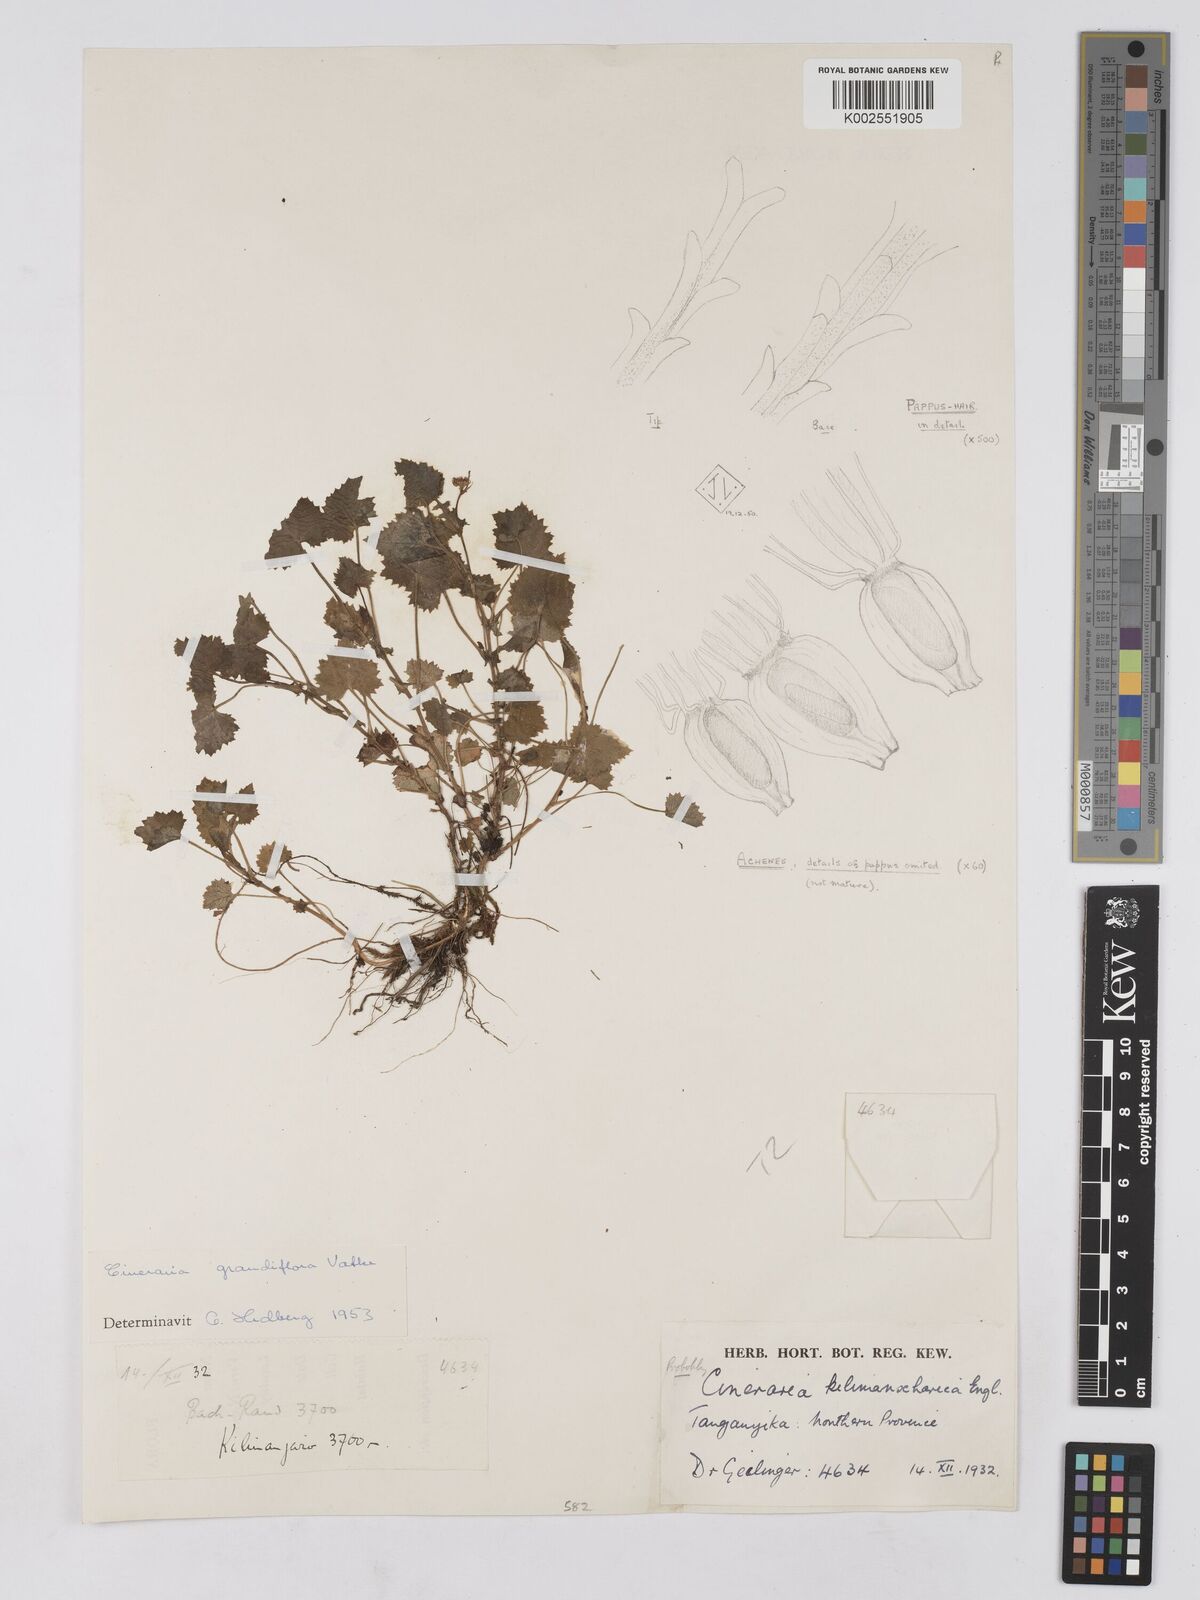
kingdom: Plantae
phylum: Tracheophyta
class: Magnoliopsida
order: Asterales
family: Asteraceae
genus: Cineraria
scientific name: Cineraria deltoidea
